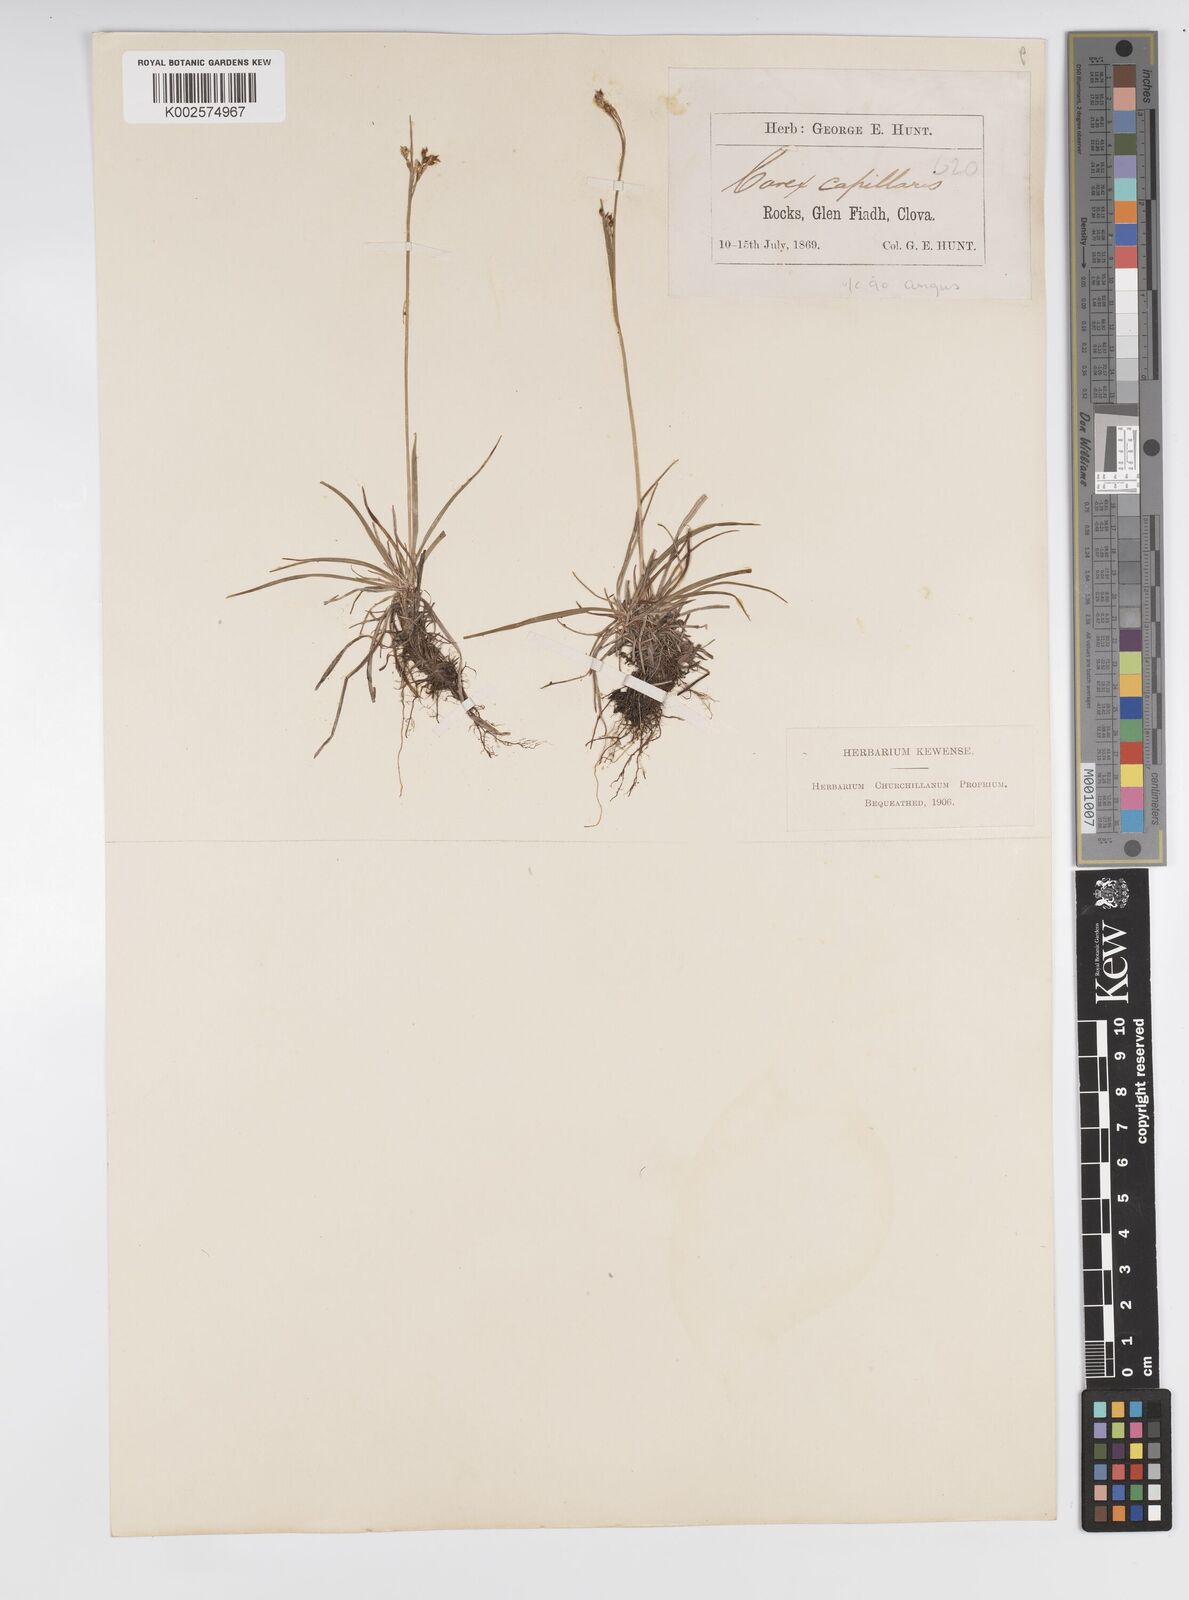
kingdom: Plantae
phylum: Tracheophyta
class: Liliopsida
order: Poales
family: Cyperaceae
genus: Carex
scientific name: Carex capillaris
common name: Hair sedge
